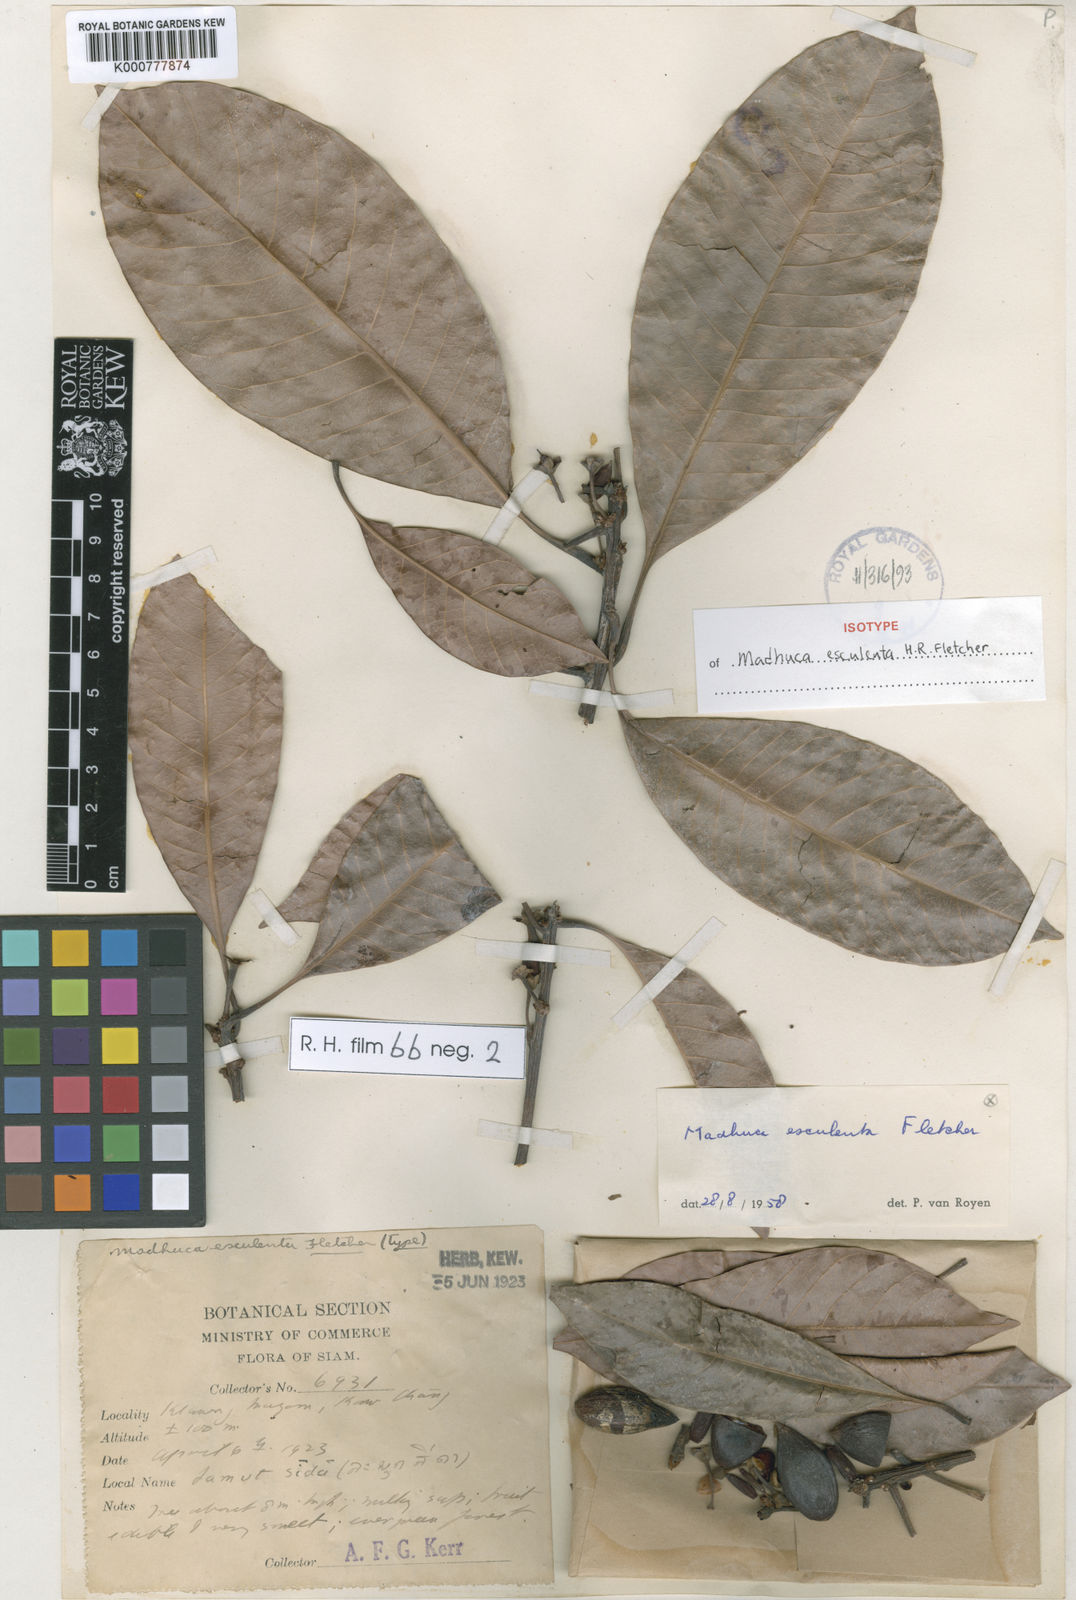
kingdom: Plantae
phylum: Tracheophyta
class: Magnoliopsida
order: Ericales
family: Sapotaceae
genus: Madhuca
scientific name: Madhuca esculenta
